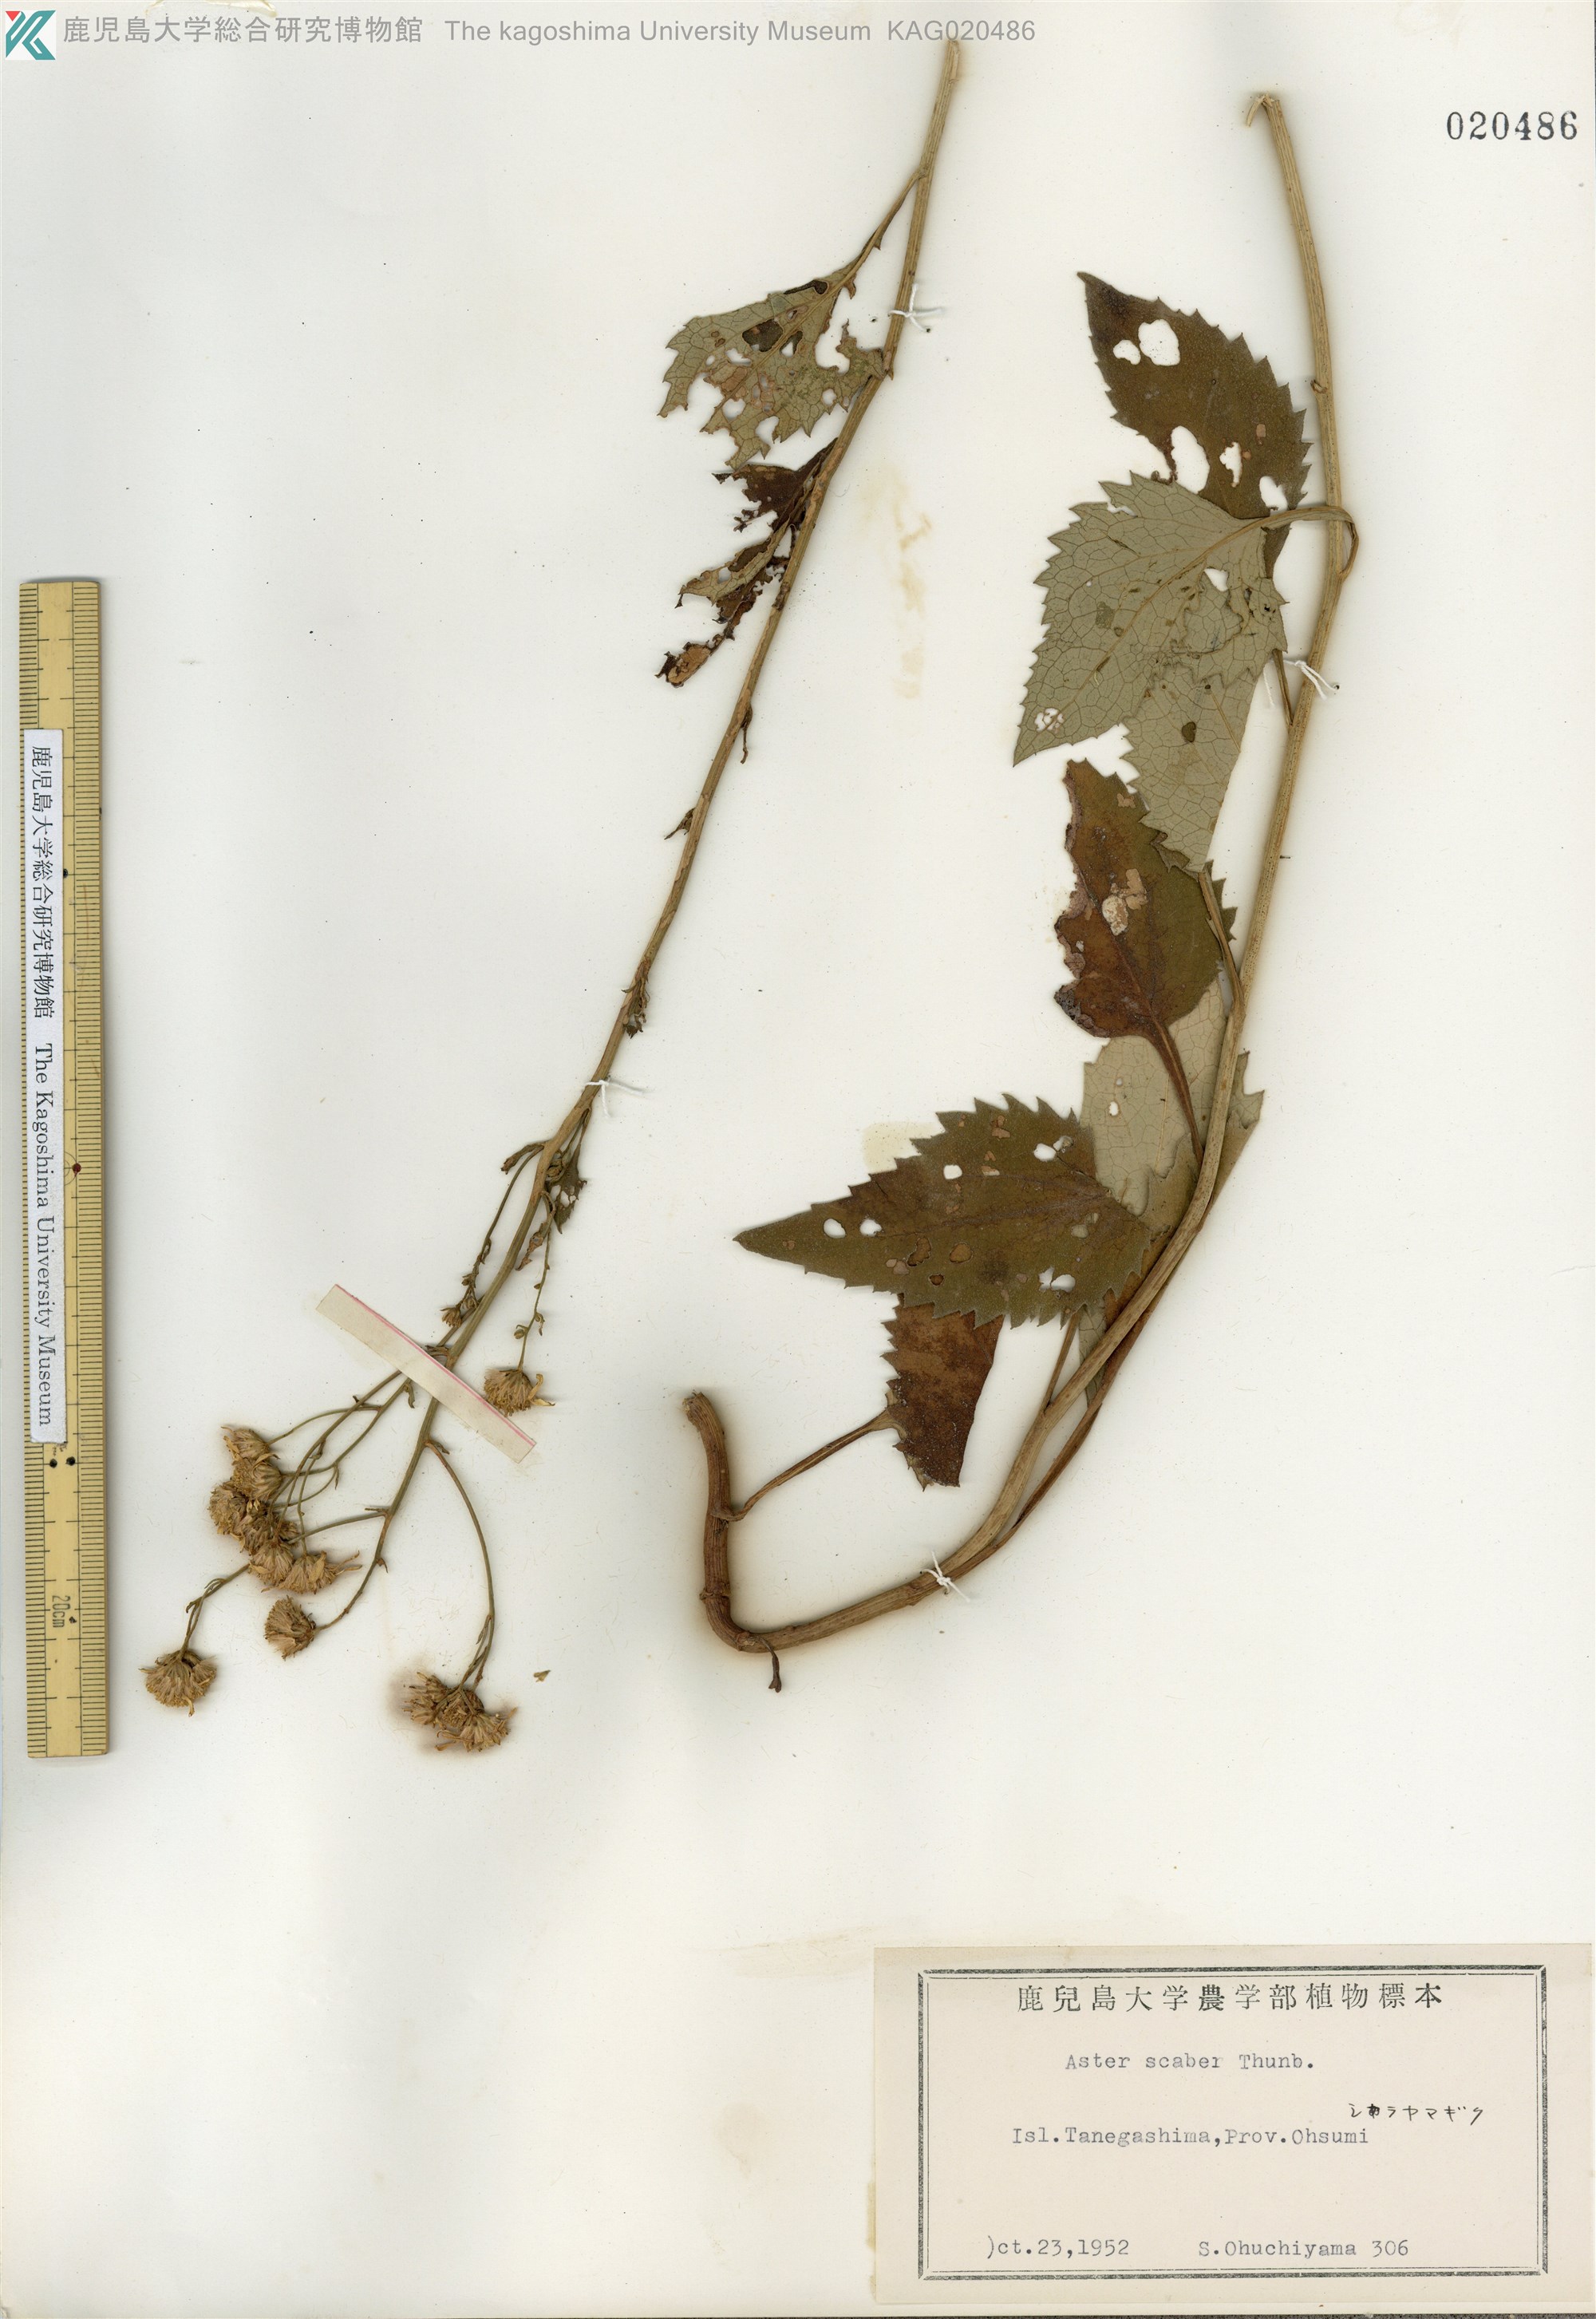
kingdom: Plantae
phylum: Tracheophyta
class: Magnoliopsida
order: Asterales
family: Asteraceae
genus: Cardiagyris
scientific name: Cardiagyris scabra
